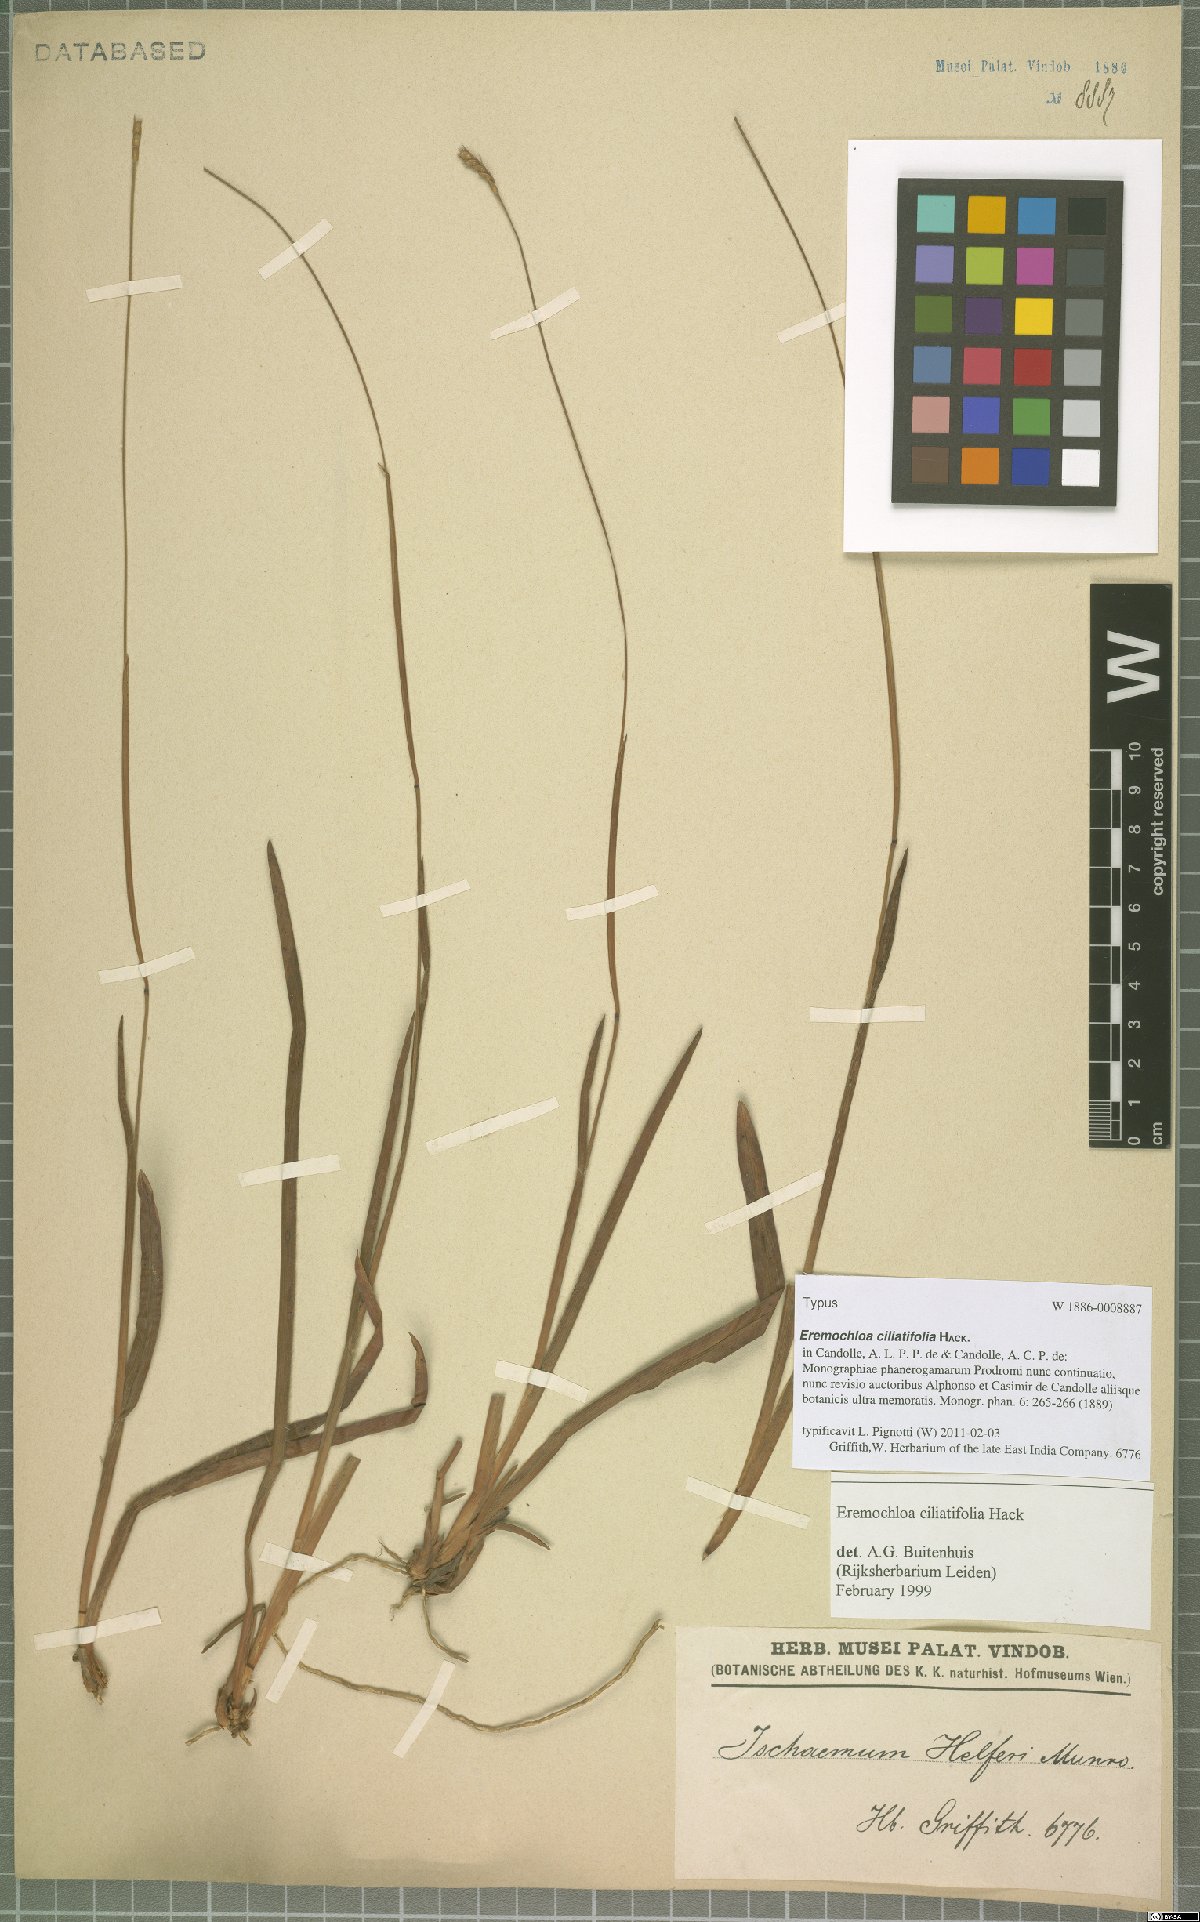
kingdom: Plantae
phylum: Tracheophyta
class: Liliopsida
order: Poales
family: Poaceae
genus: Eremochloa
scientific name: Eremochloa ciliatifolia
